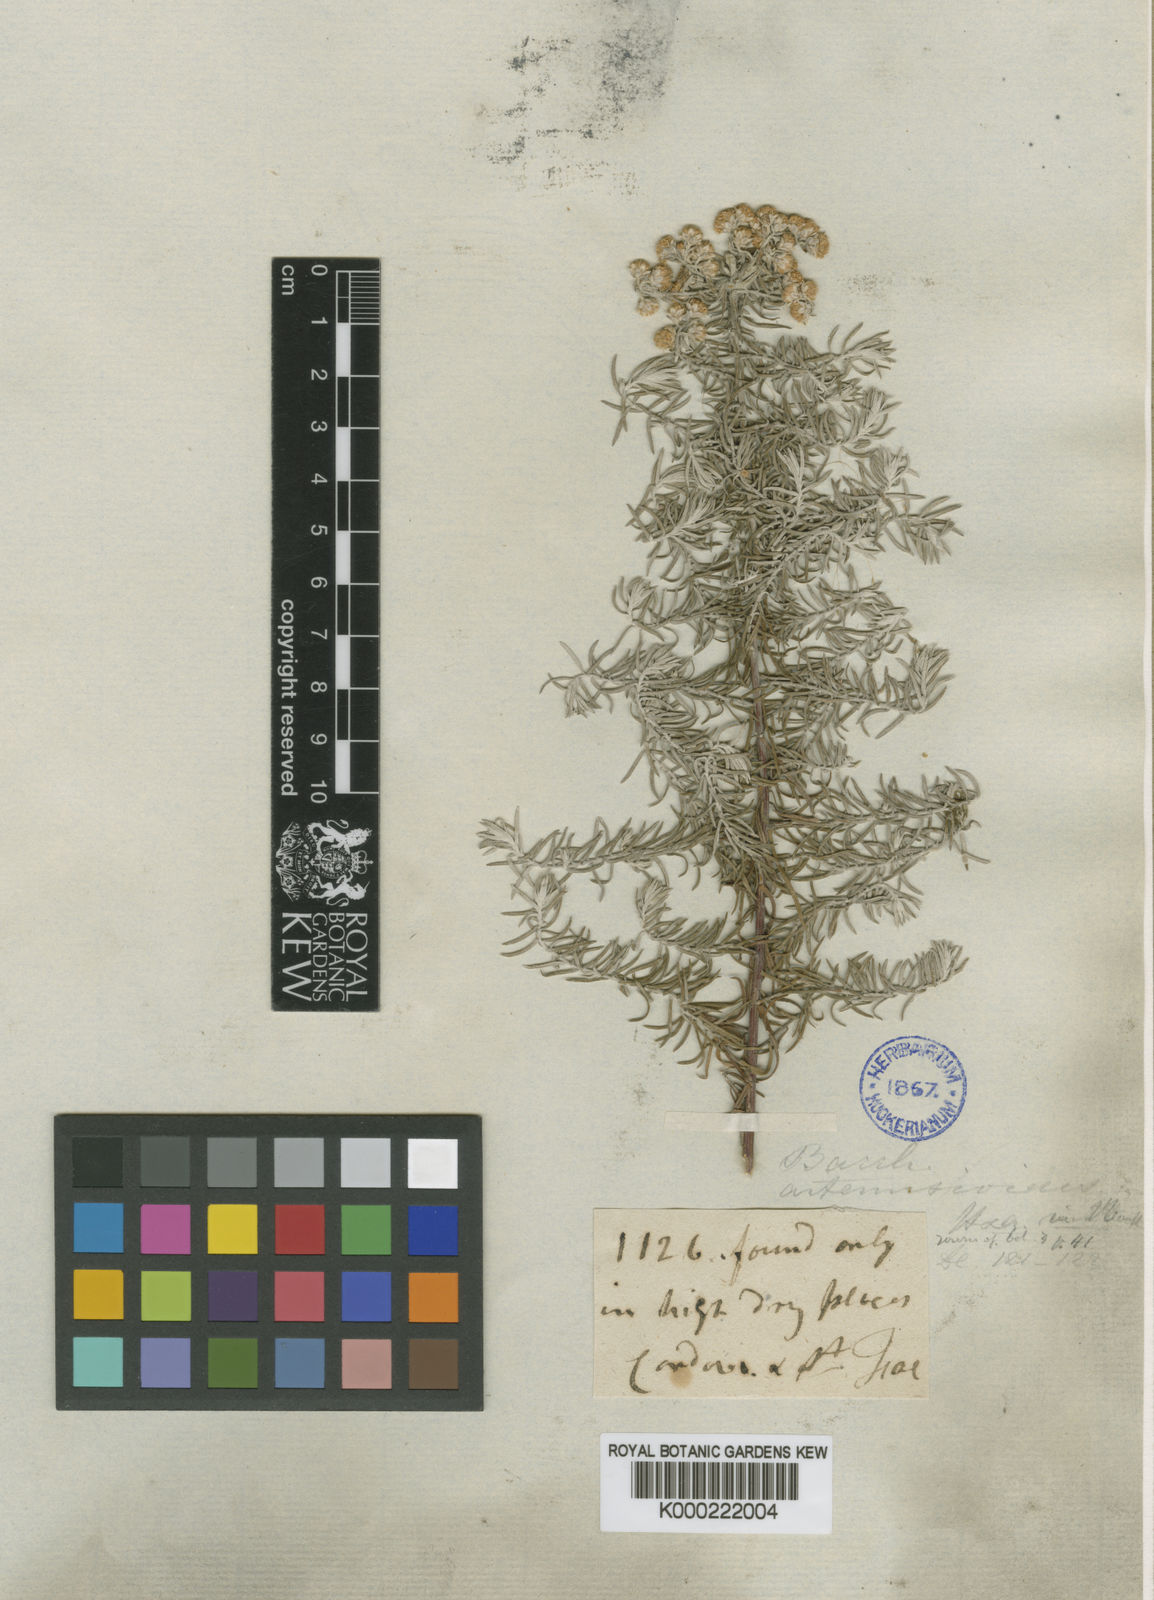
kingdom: Plantae
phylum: Tracheophyta
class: Magnoliopsida
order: Asterales
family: Asteraceae
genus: Baccharis
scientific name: Baccharis artemisioides
